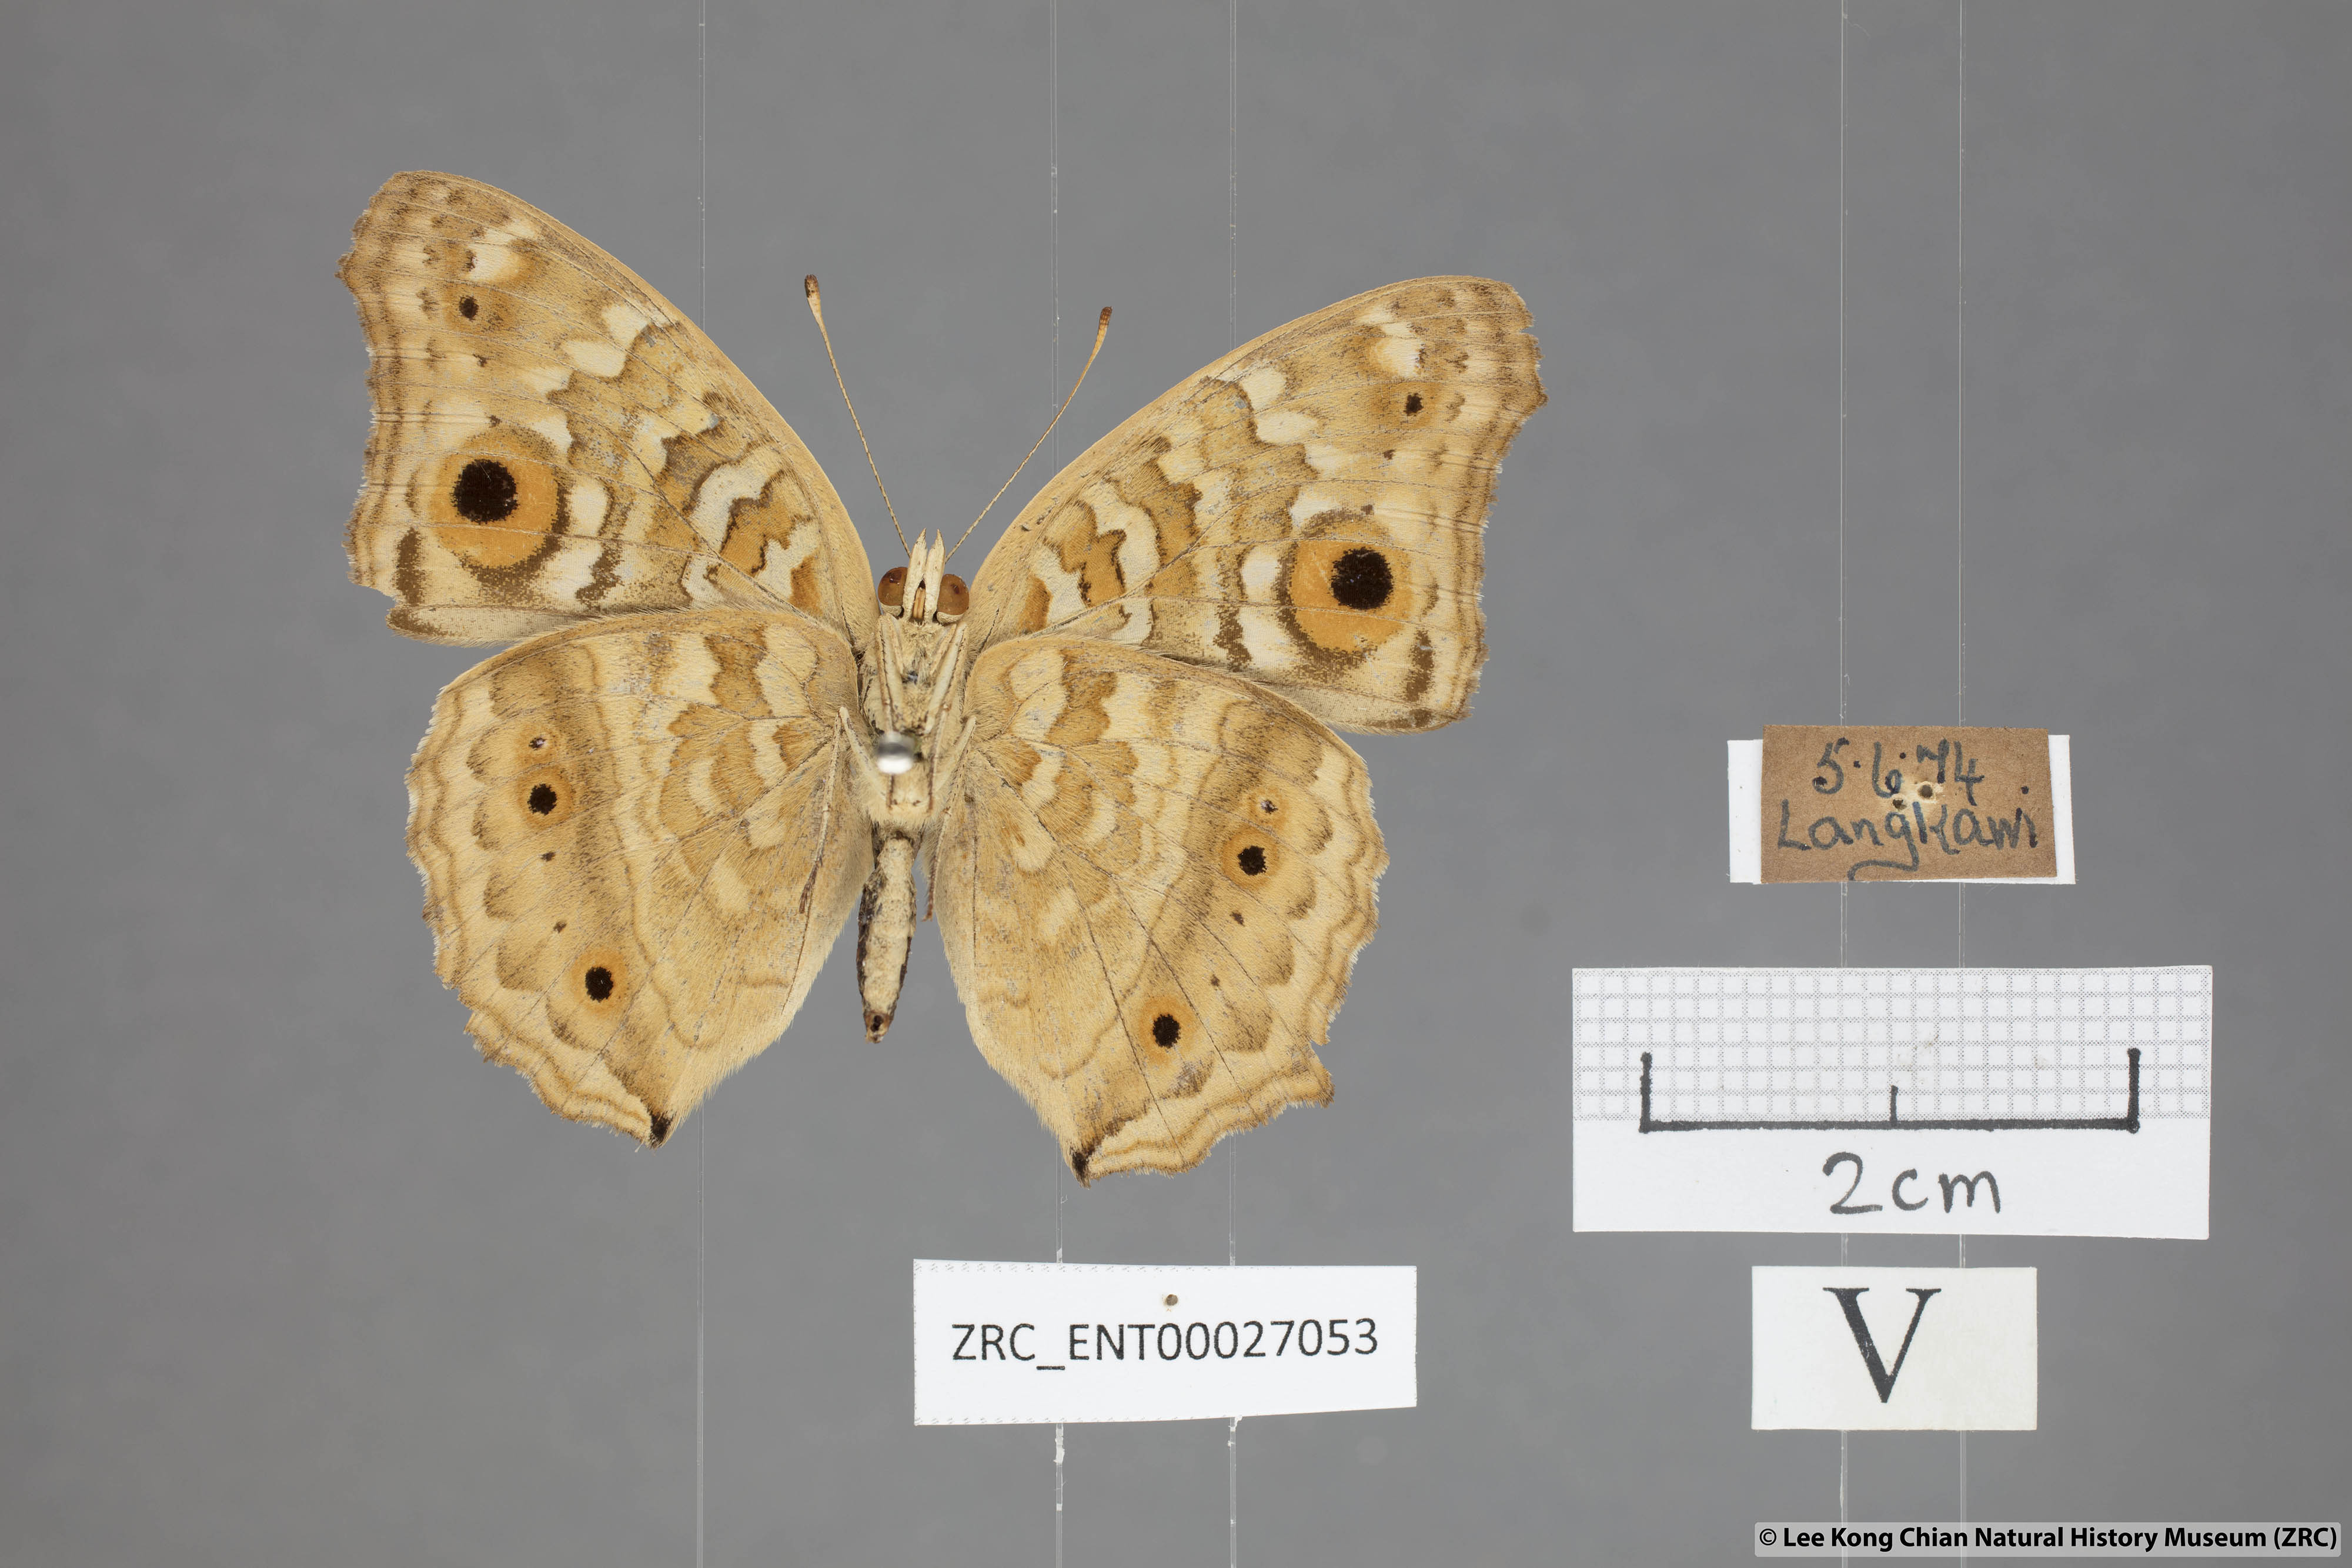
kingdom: Animalia
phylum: Arthropoda
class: Insecta
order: Lepidoptera
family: Nymphalidae
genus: Junonia
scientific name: Junonia lemonias
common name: Lemon pansy
